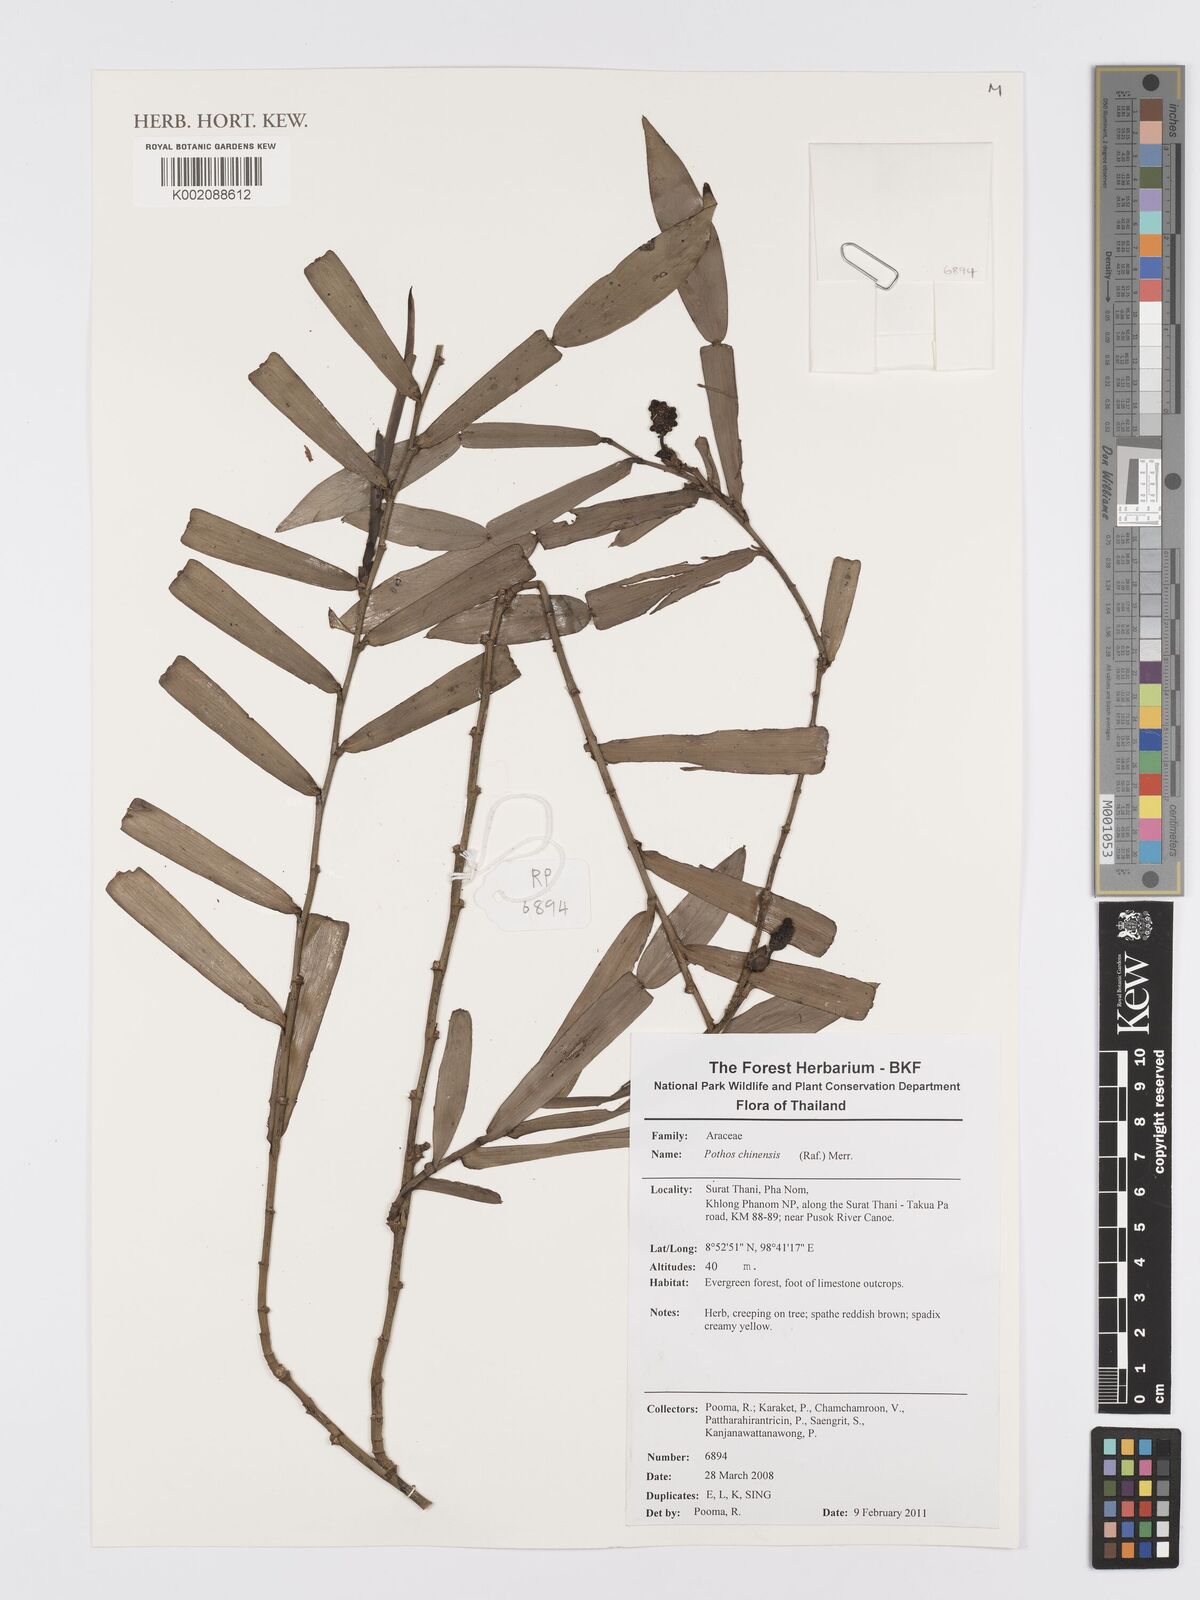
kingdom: Plantae
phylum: Tracheophyta
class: Liliopsida
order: Alismatales
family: Araceae
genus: Pothos
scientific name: Pothos chinensis
